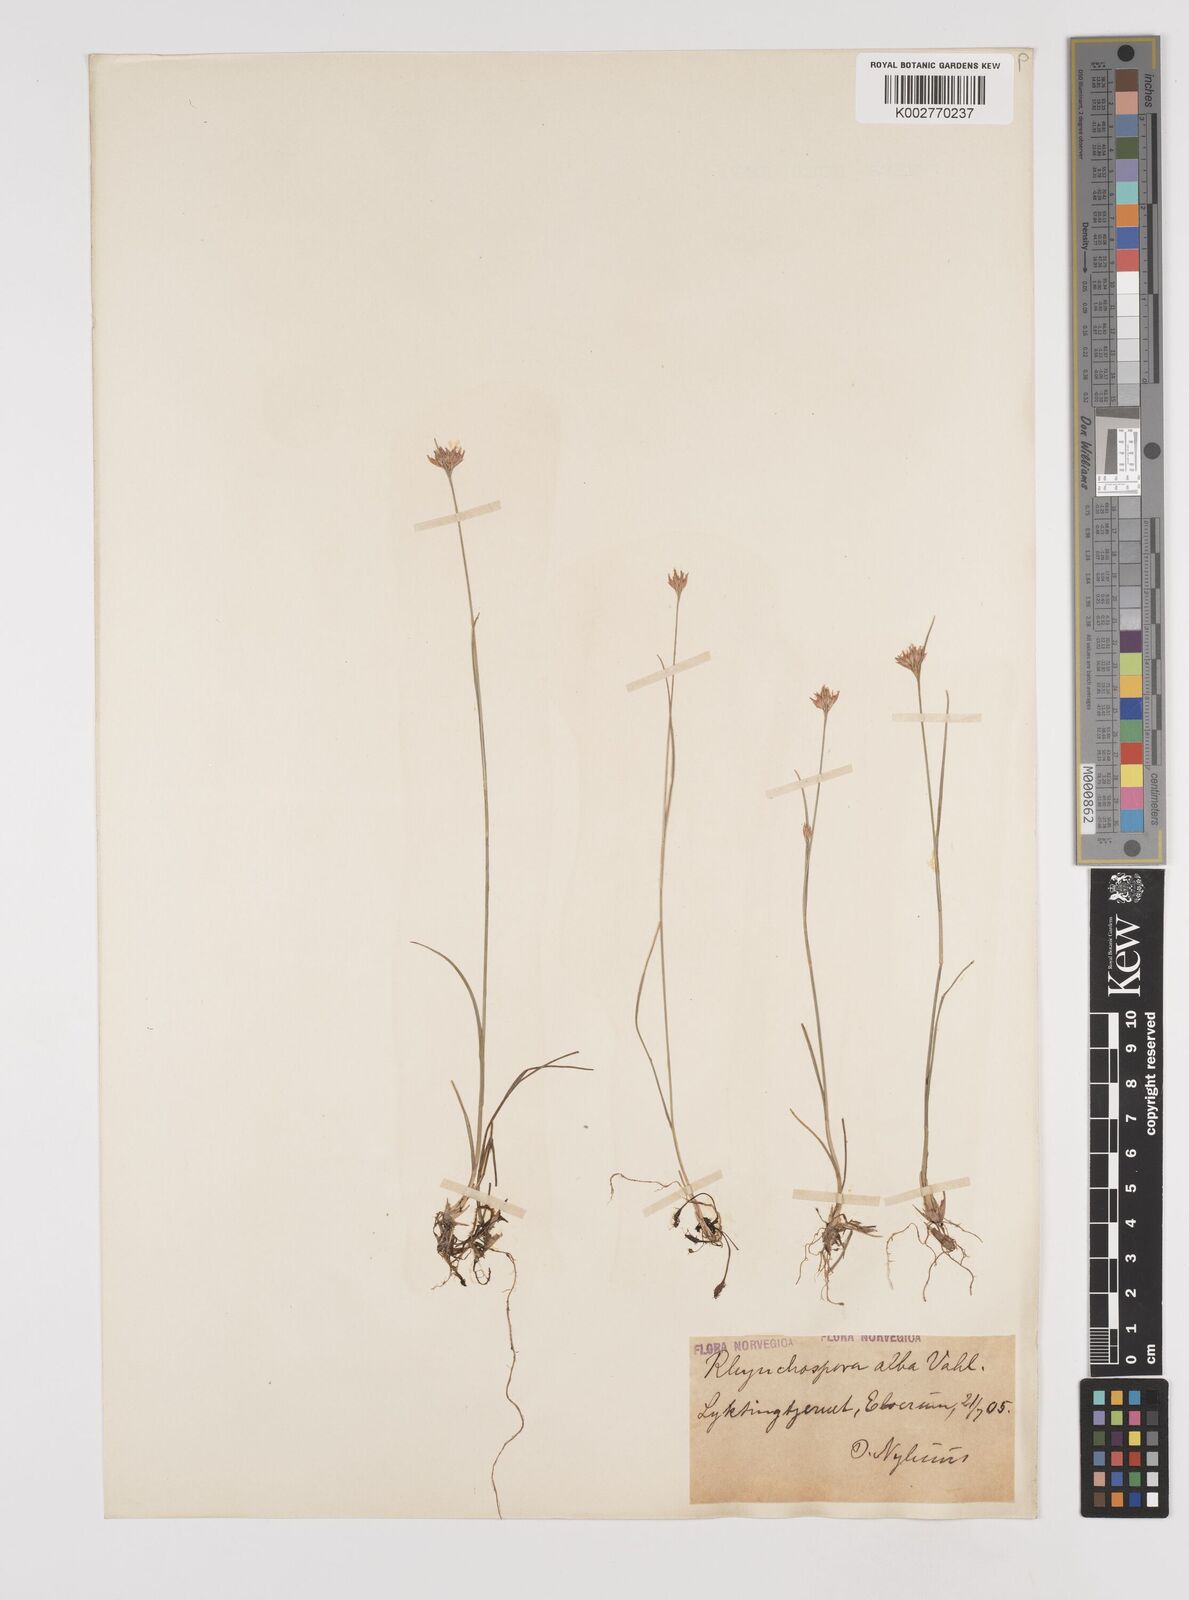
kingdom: Plantae
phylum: Tracheophyta
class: Liliopsida
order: Poales
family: Cyperaceae
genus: Rhynchospora
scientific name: Rhynchospora alba
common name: White beak-sedge
